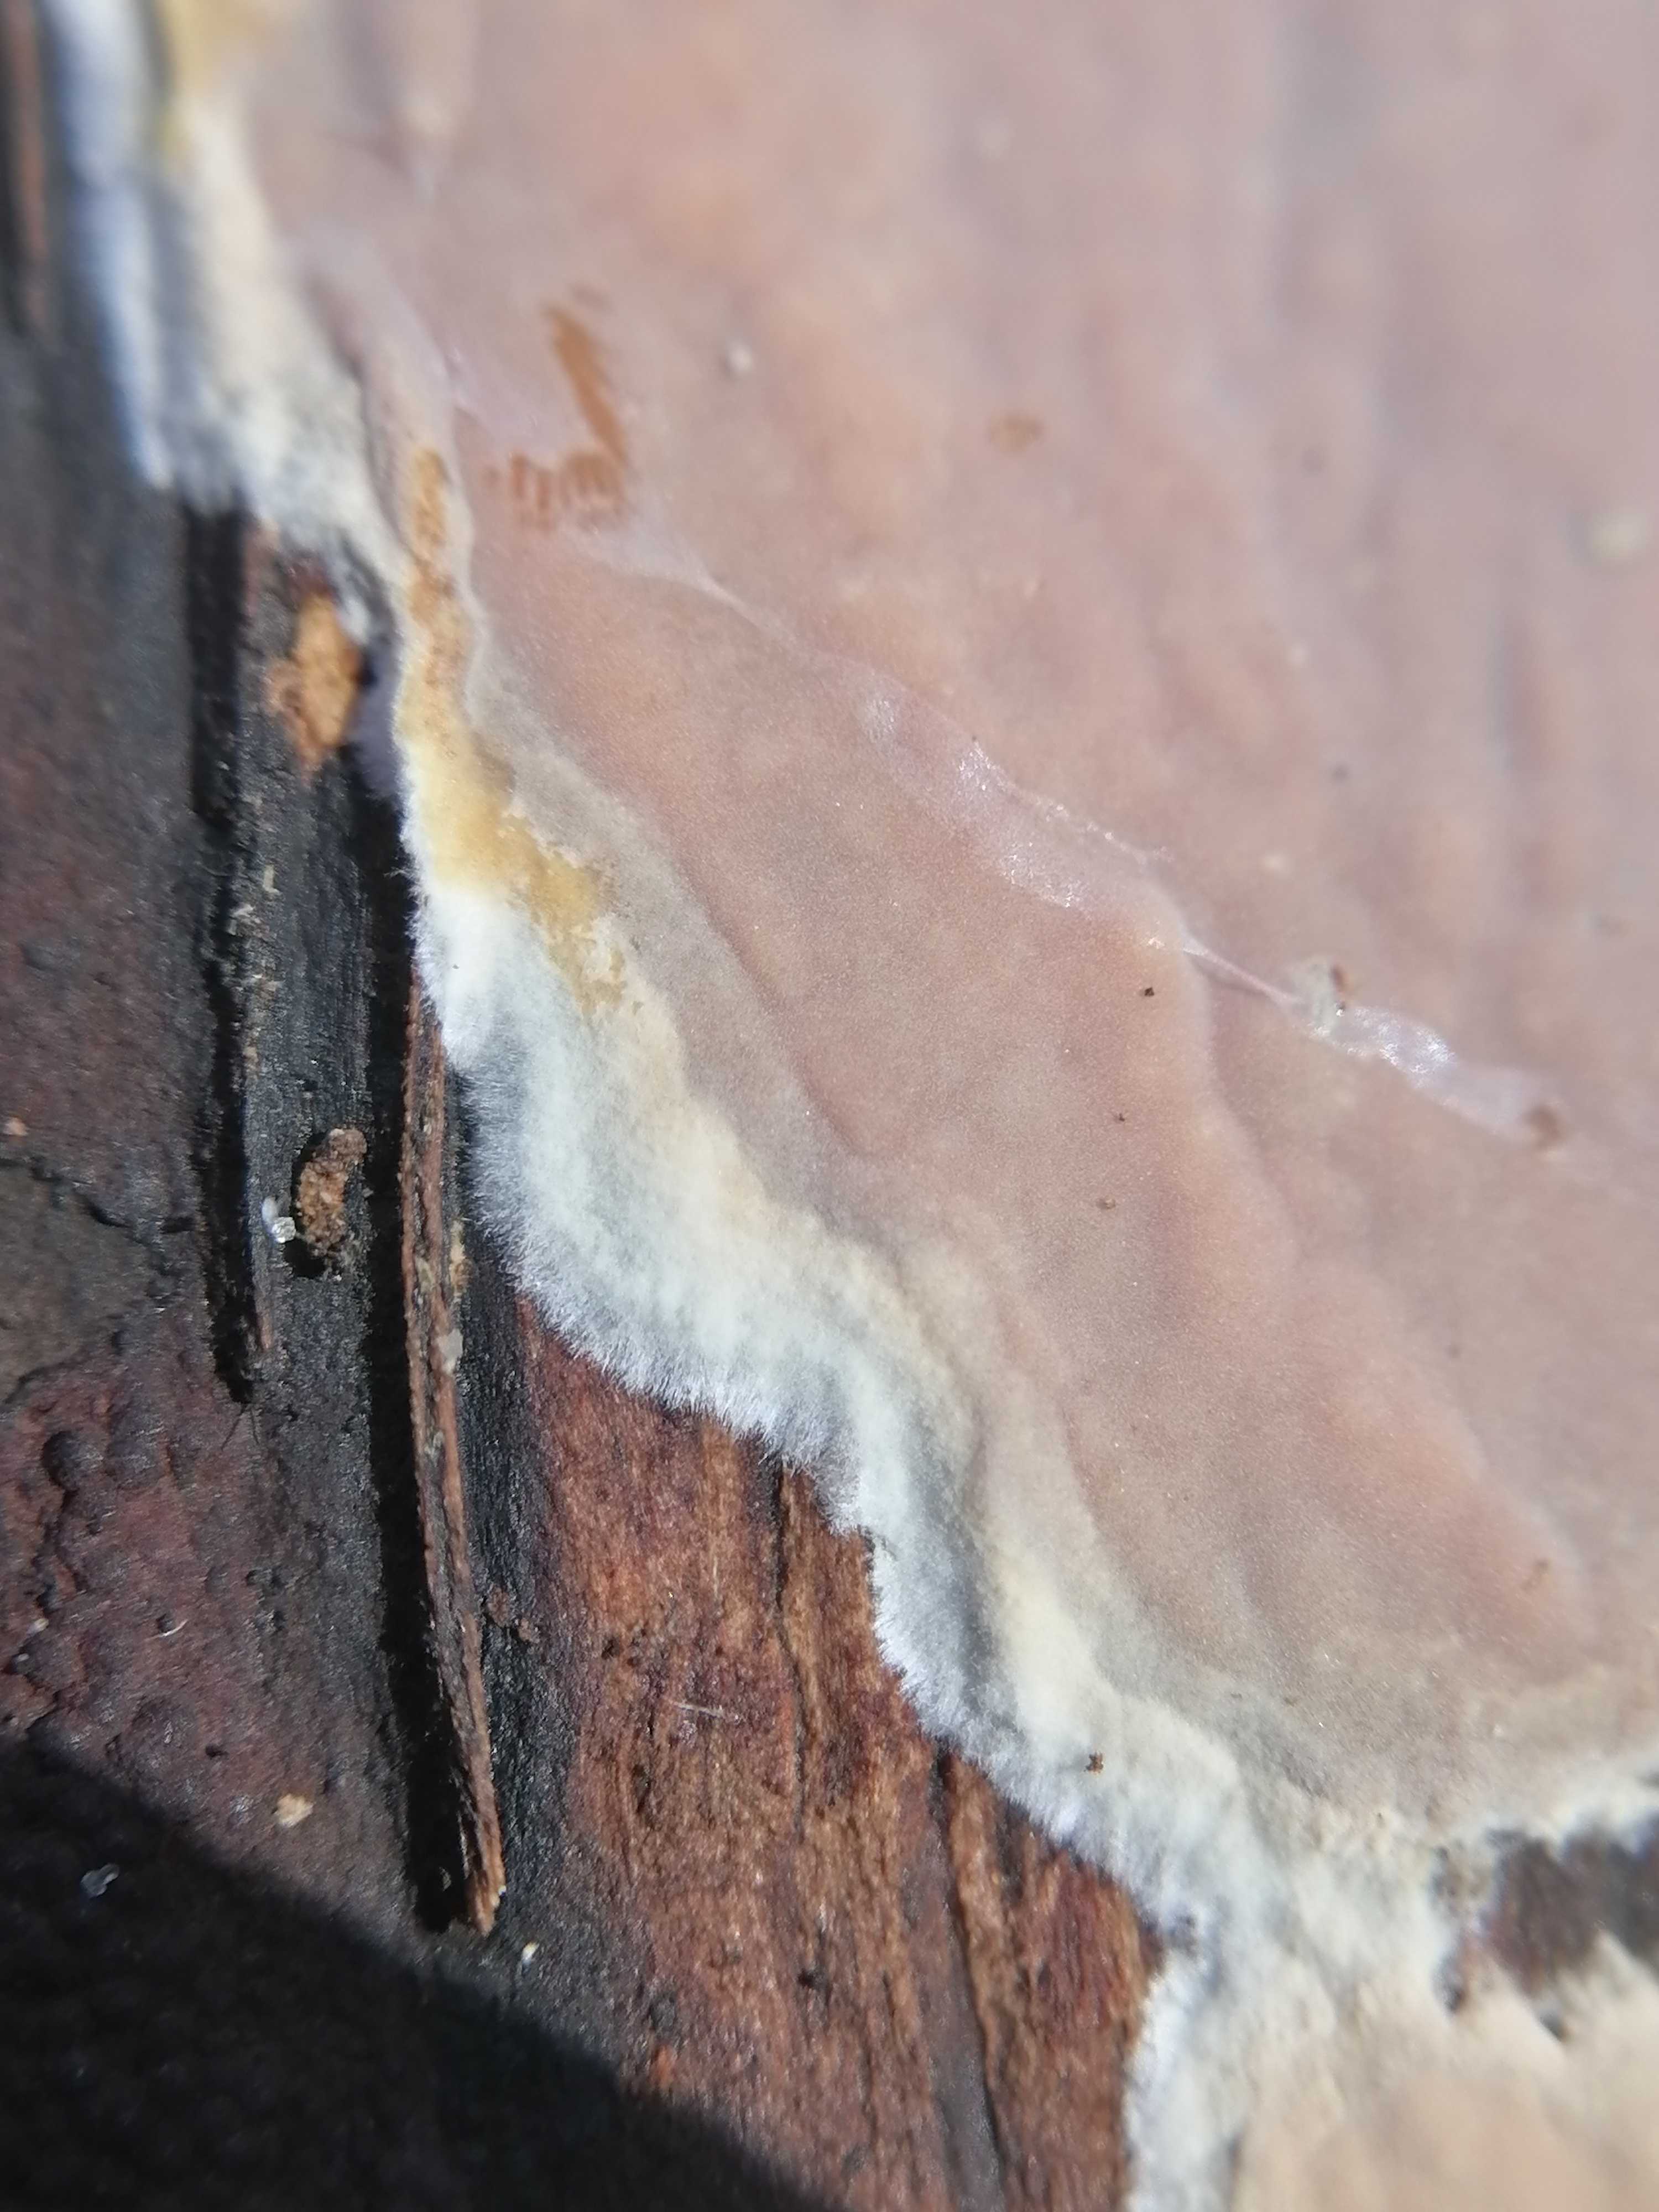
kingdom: Fungi
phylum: Basidiomycota
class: Agaricomycetes
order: Russulales
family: Peniophoraceae
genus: Scytinostroma
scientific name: Scytinostroma hemidichophyticum
